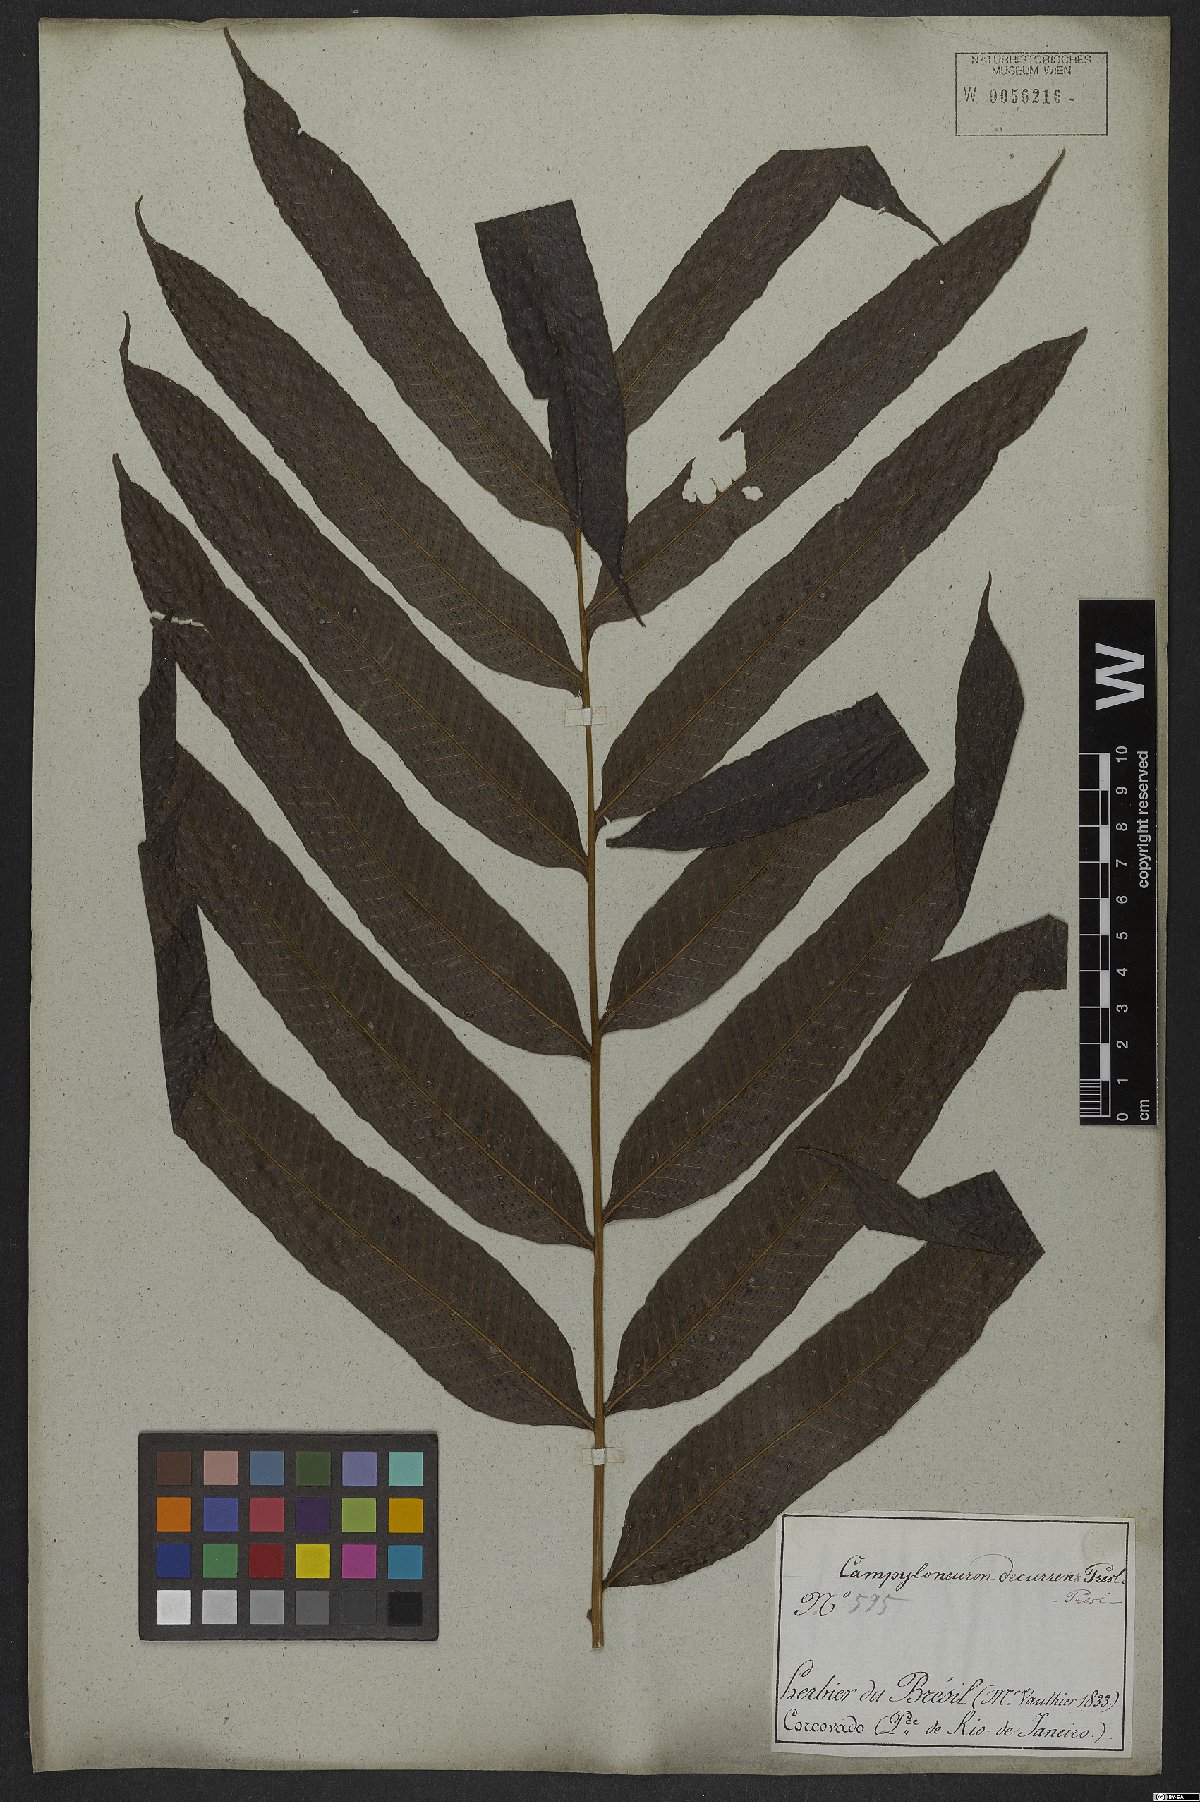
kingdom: Plantae
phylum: Tracheophyta
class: Polypodiopsida
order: Polypodiales
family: Polypodiaceae
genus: Campyloneurum
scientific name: Campyloneurum decurrens
